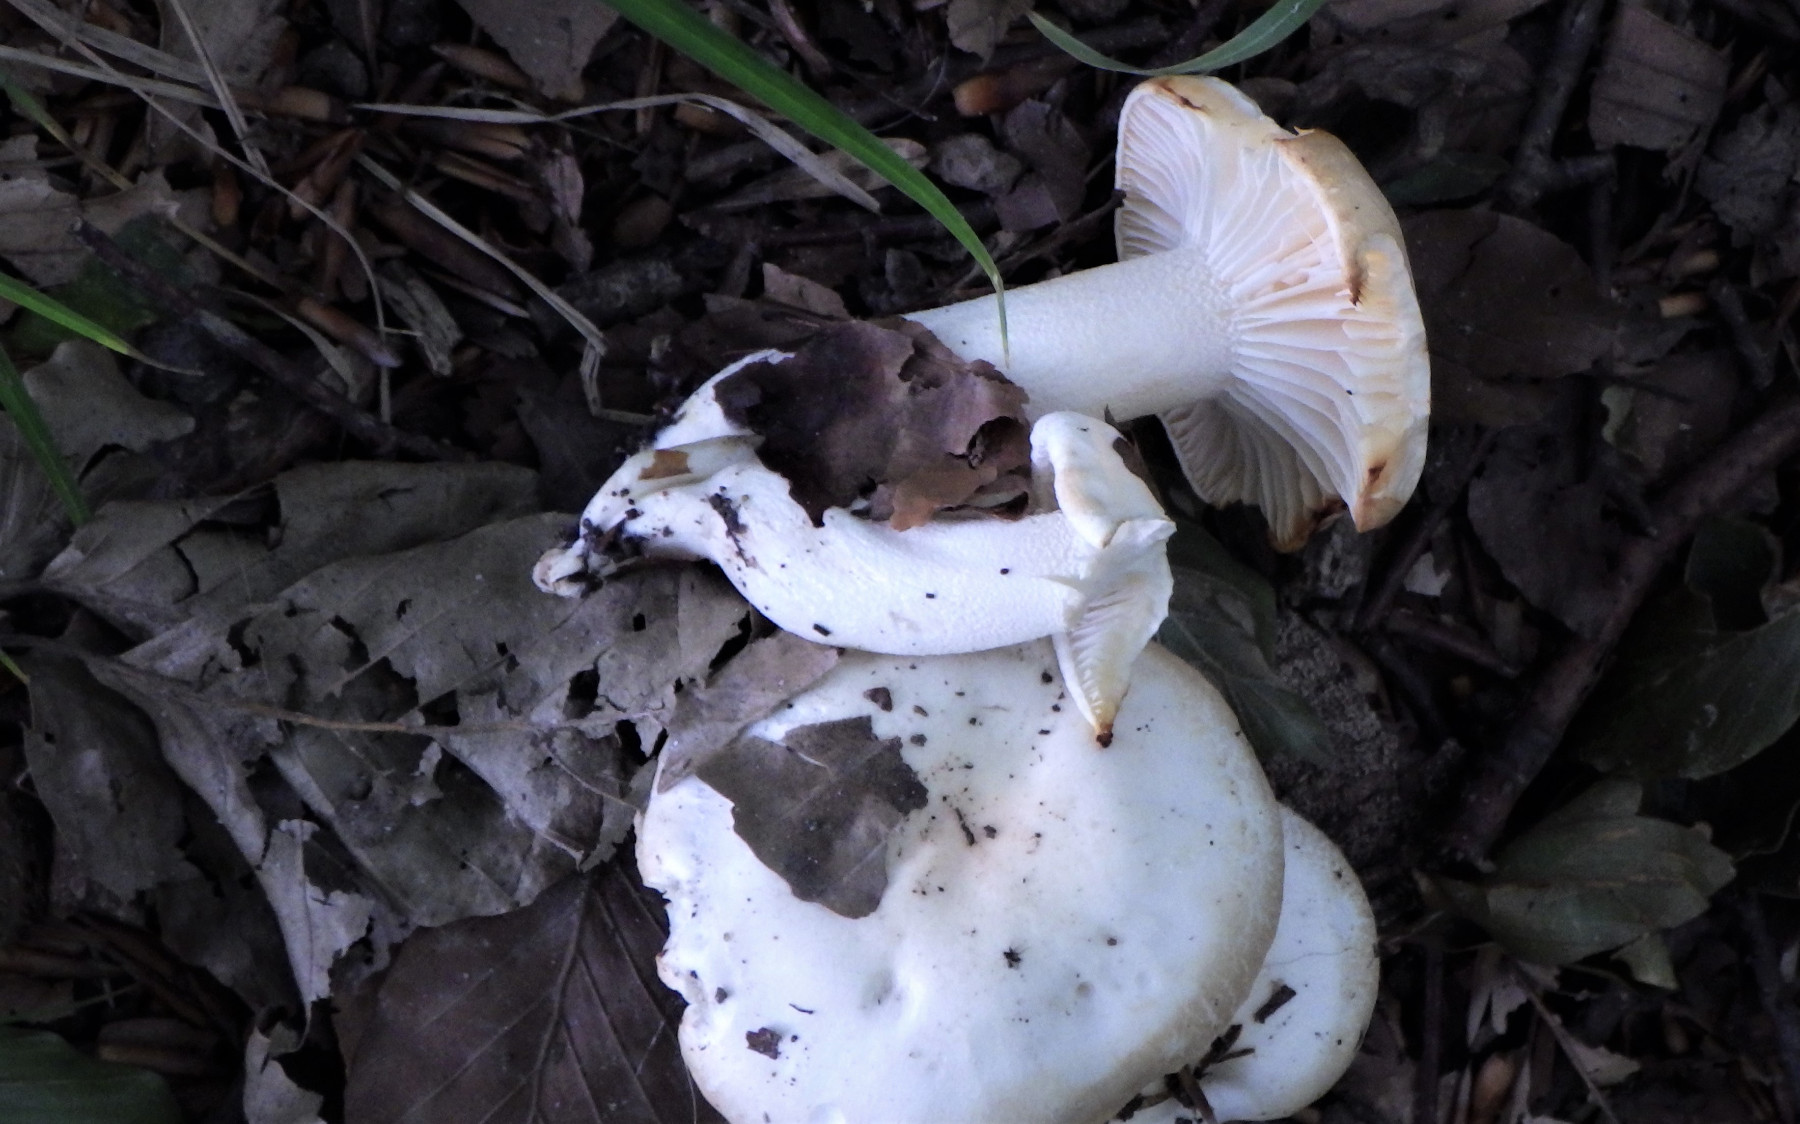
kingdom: Fungi
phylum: Basidiomycota
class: Agaricomycetes
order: Agaricales
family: Hygrophoraceae
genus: Hygrophorus
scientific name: Hygrophorus discoxanthus
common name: ildelugtende sneglehat
